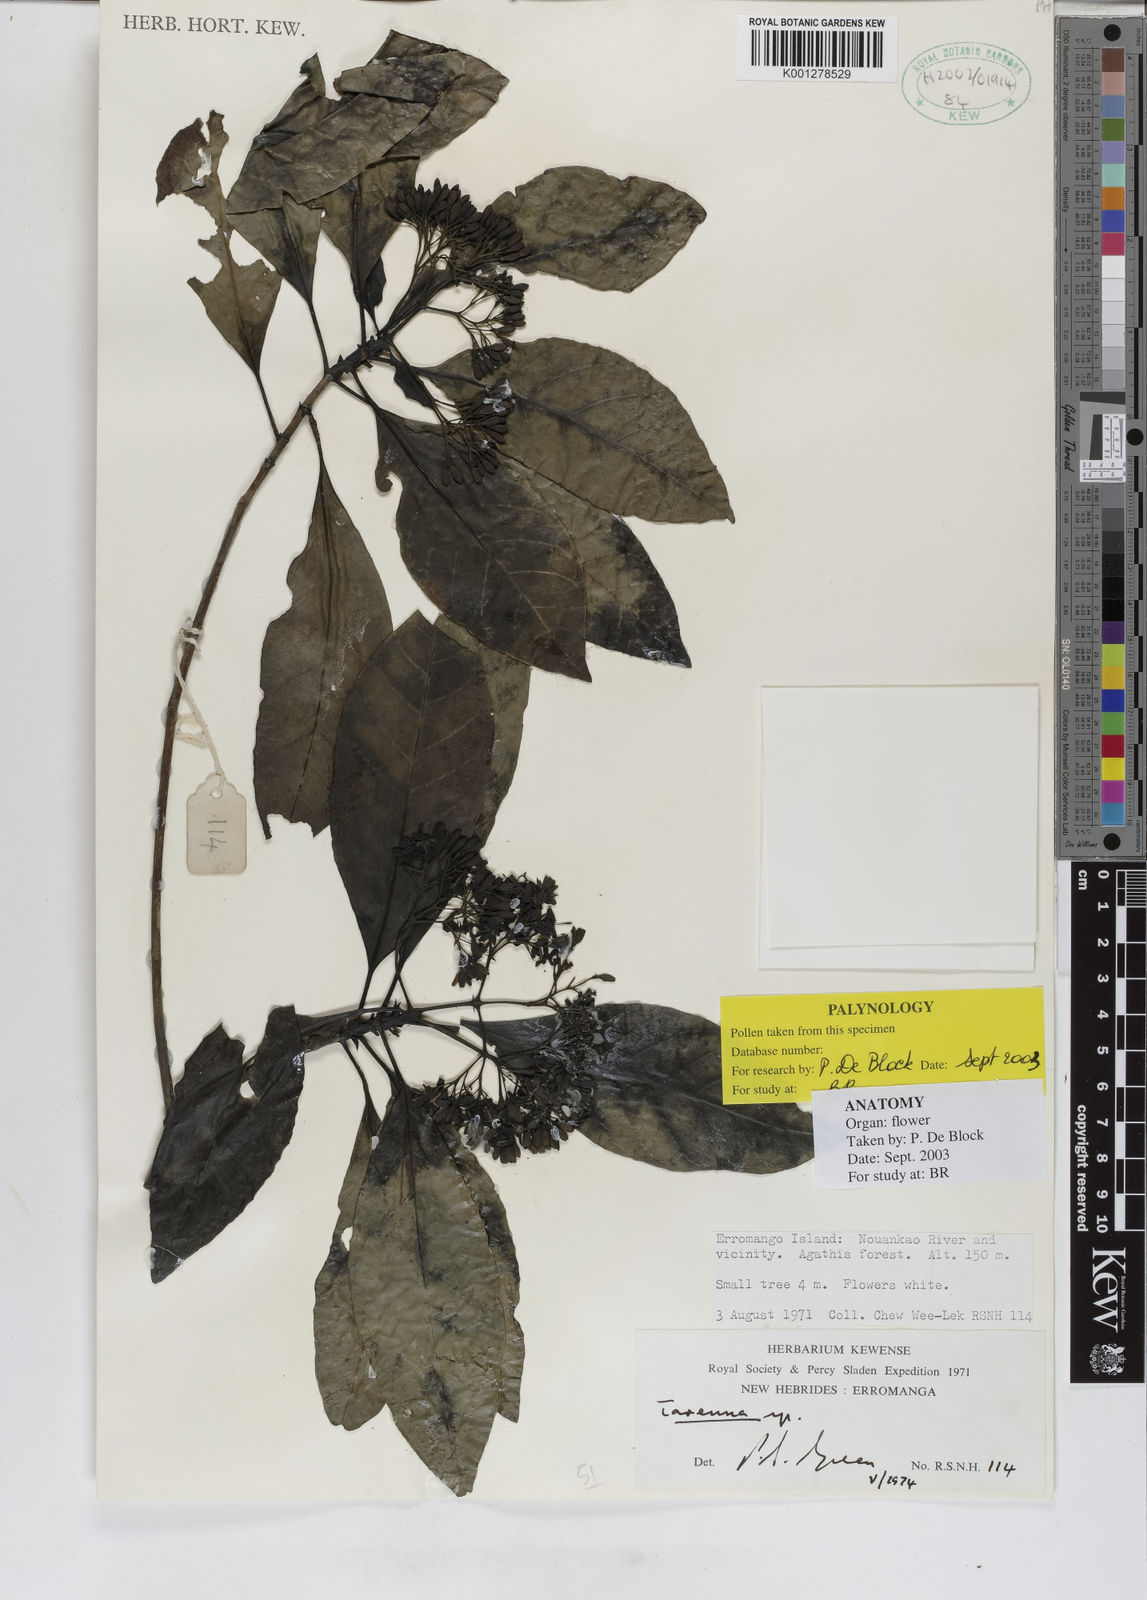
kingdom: Plantae
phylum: Tracheophyta
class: Magnoliopsida
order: Gentianales
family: Rubiaceae
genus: Tarenna
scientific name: Tarenna
